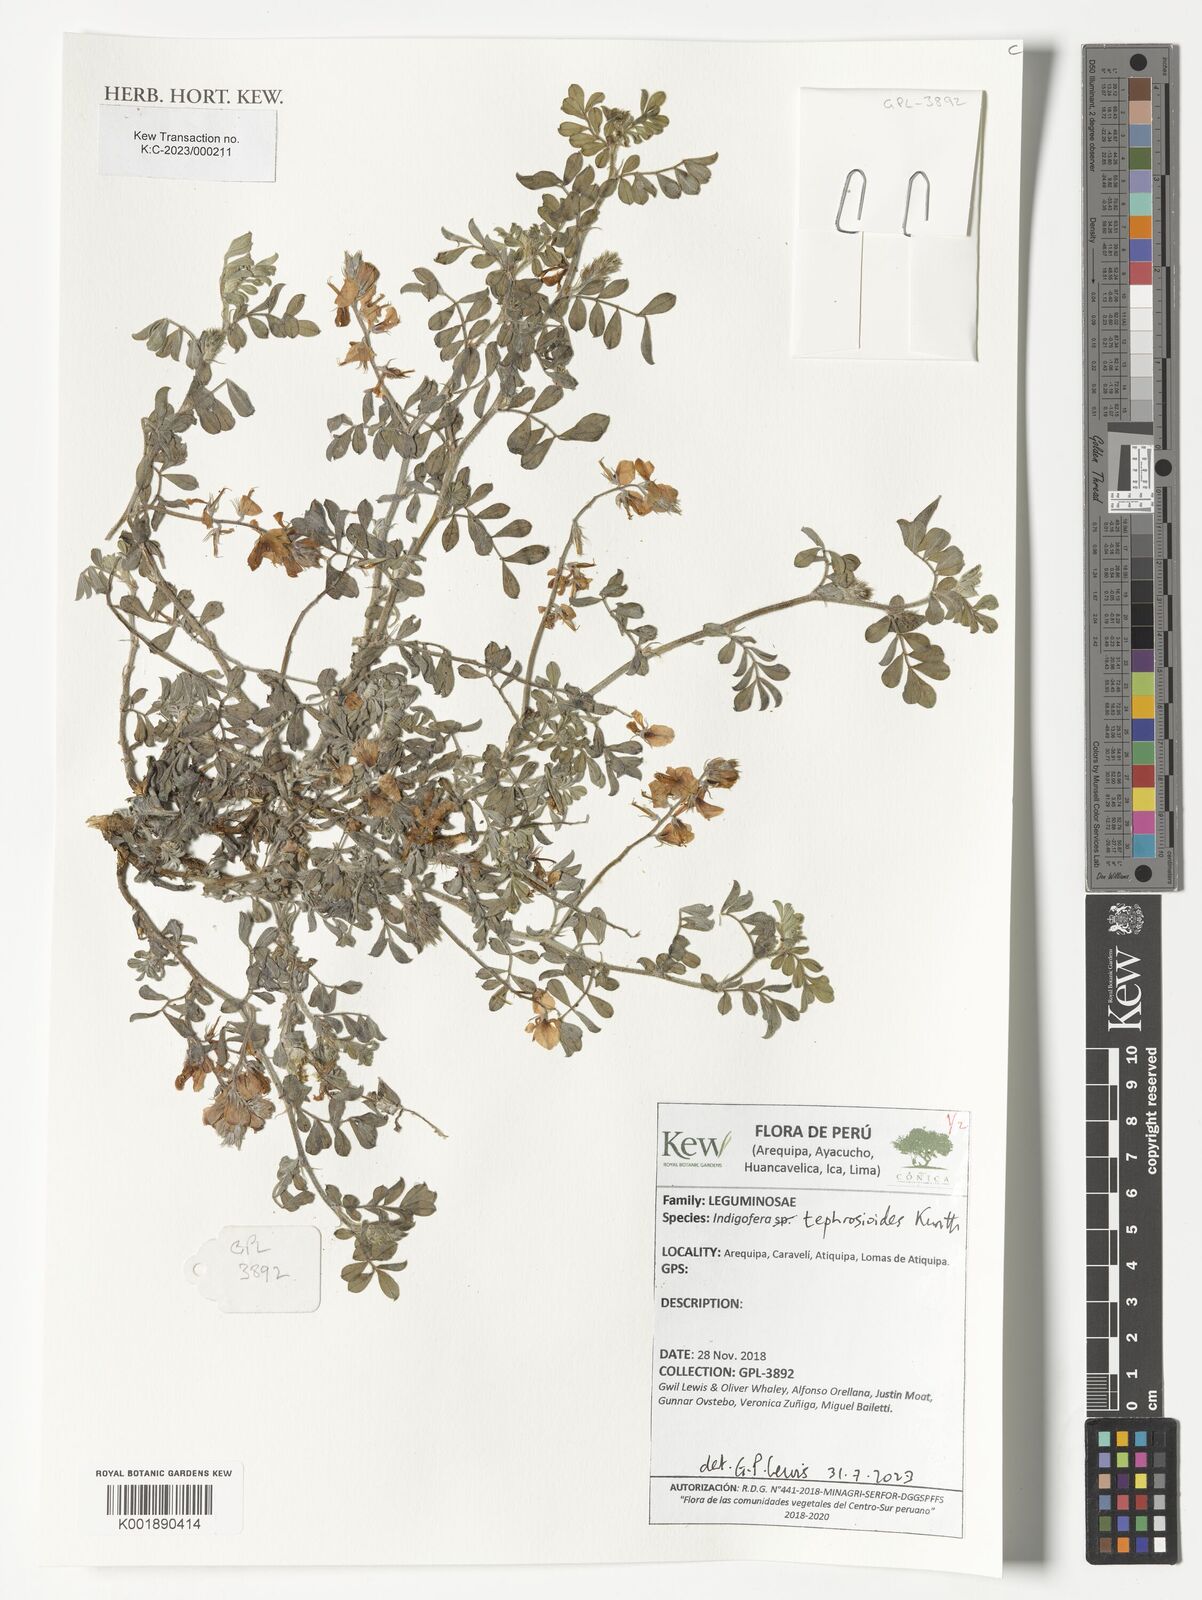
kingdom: Plantae
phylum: Tracheophyta
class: Magnoliopsida
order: Fabales
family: Fabaceae
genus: Indigofera
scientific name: Indigofera tephrosioides
